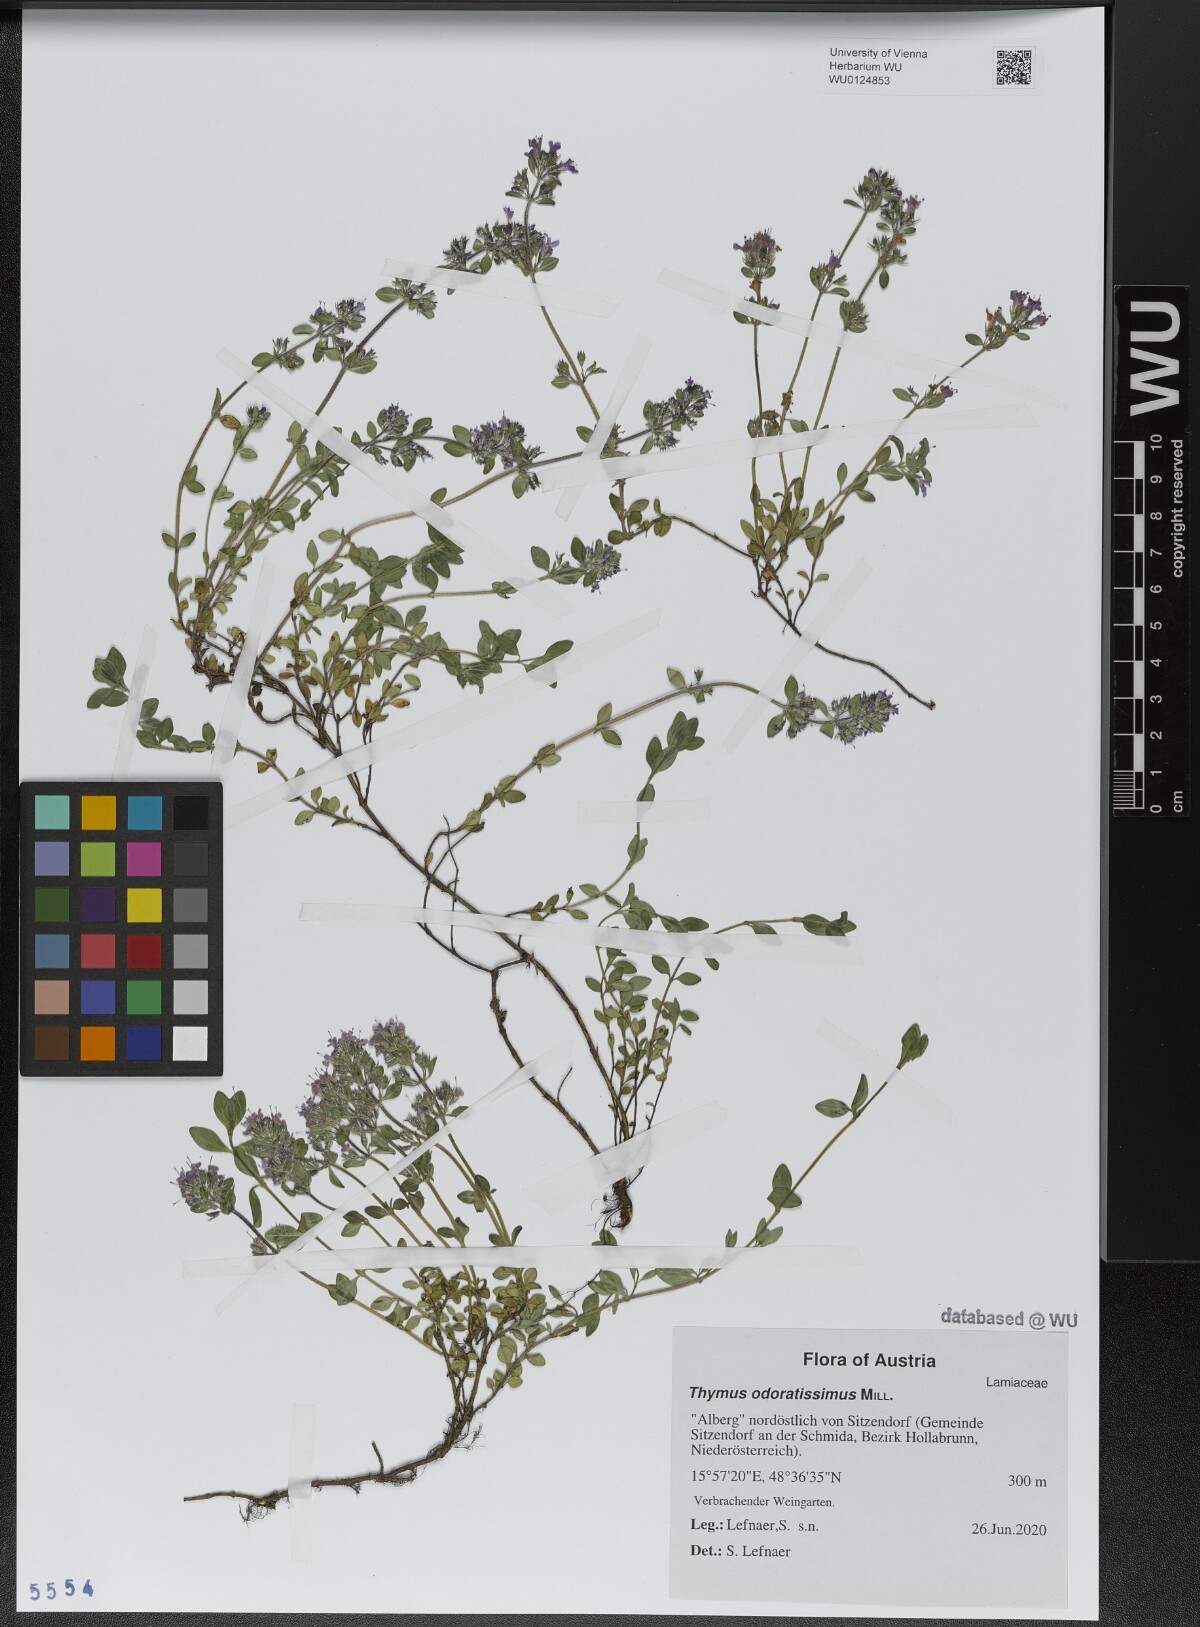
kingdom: Plantae
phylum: Tracheophyta
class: Magnoliopsida
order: Lamiales
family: Lamiaceae
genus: Thymus
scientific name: Thymus odoratissimus
